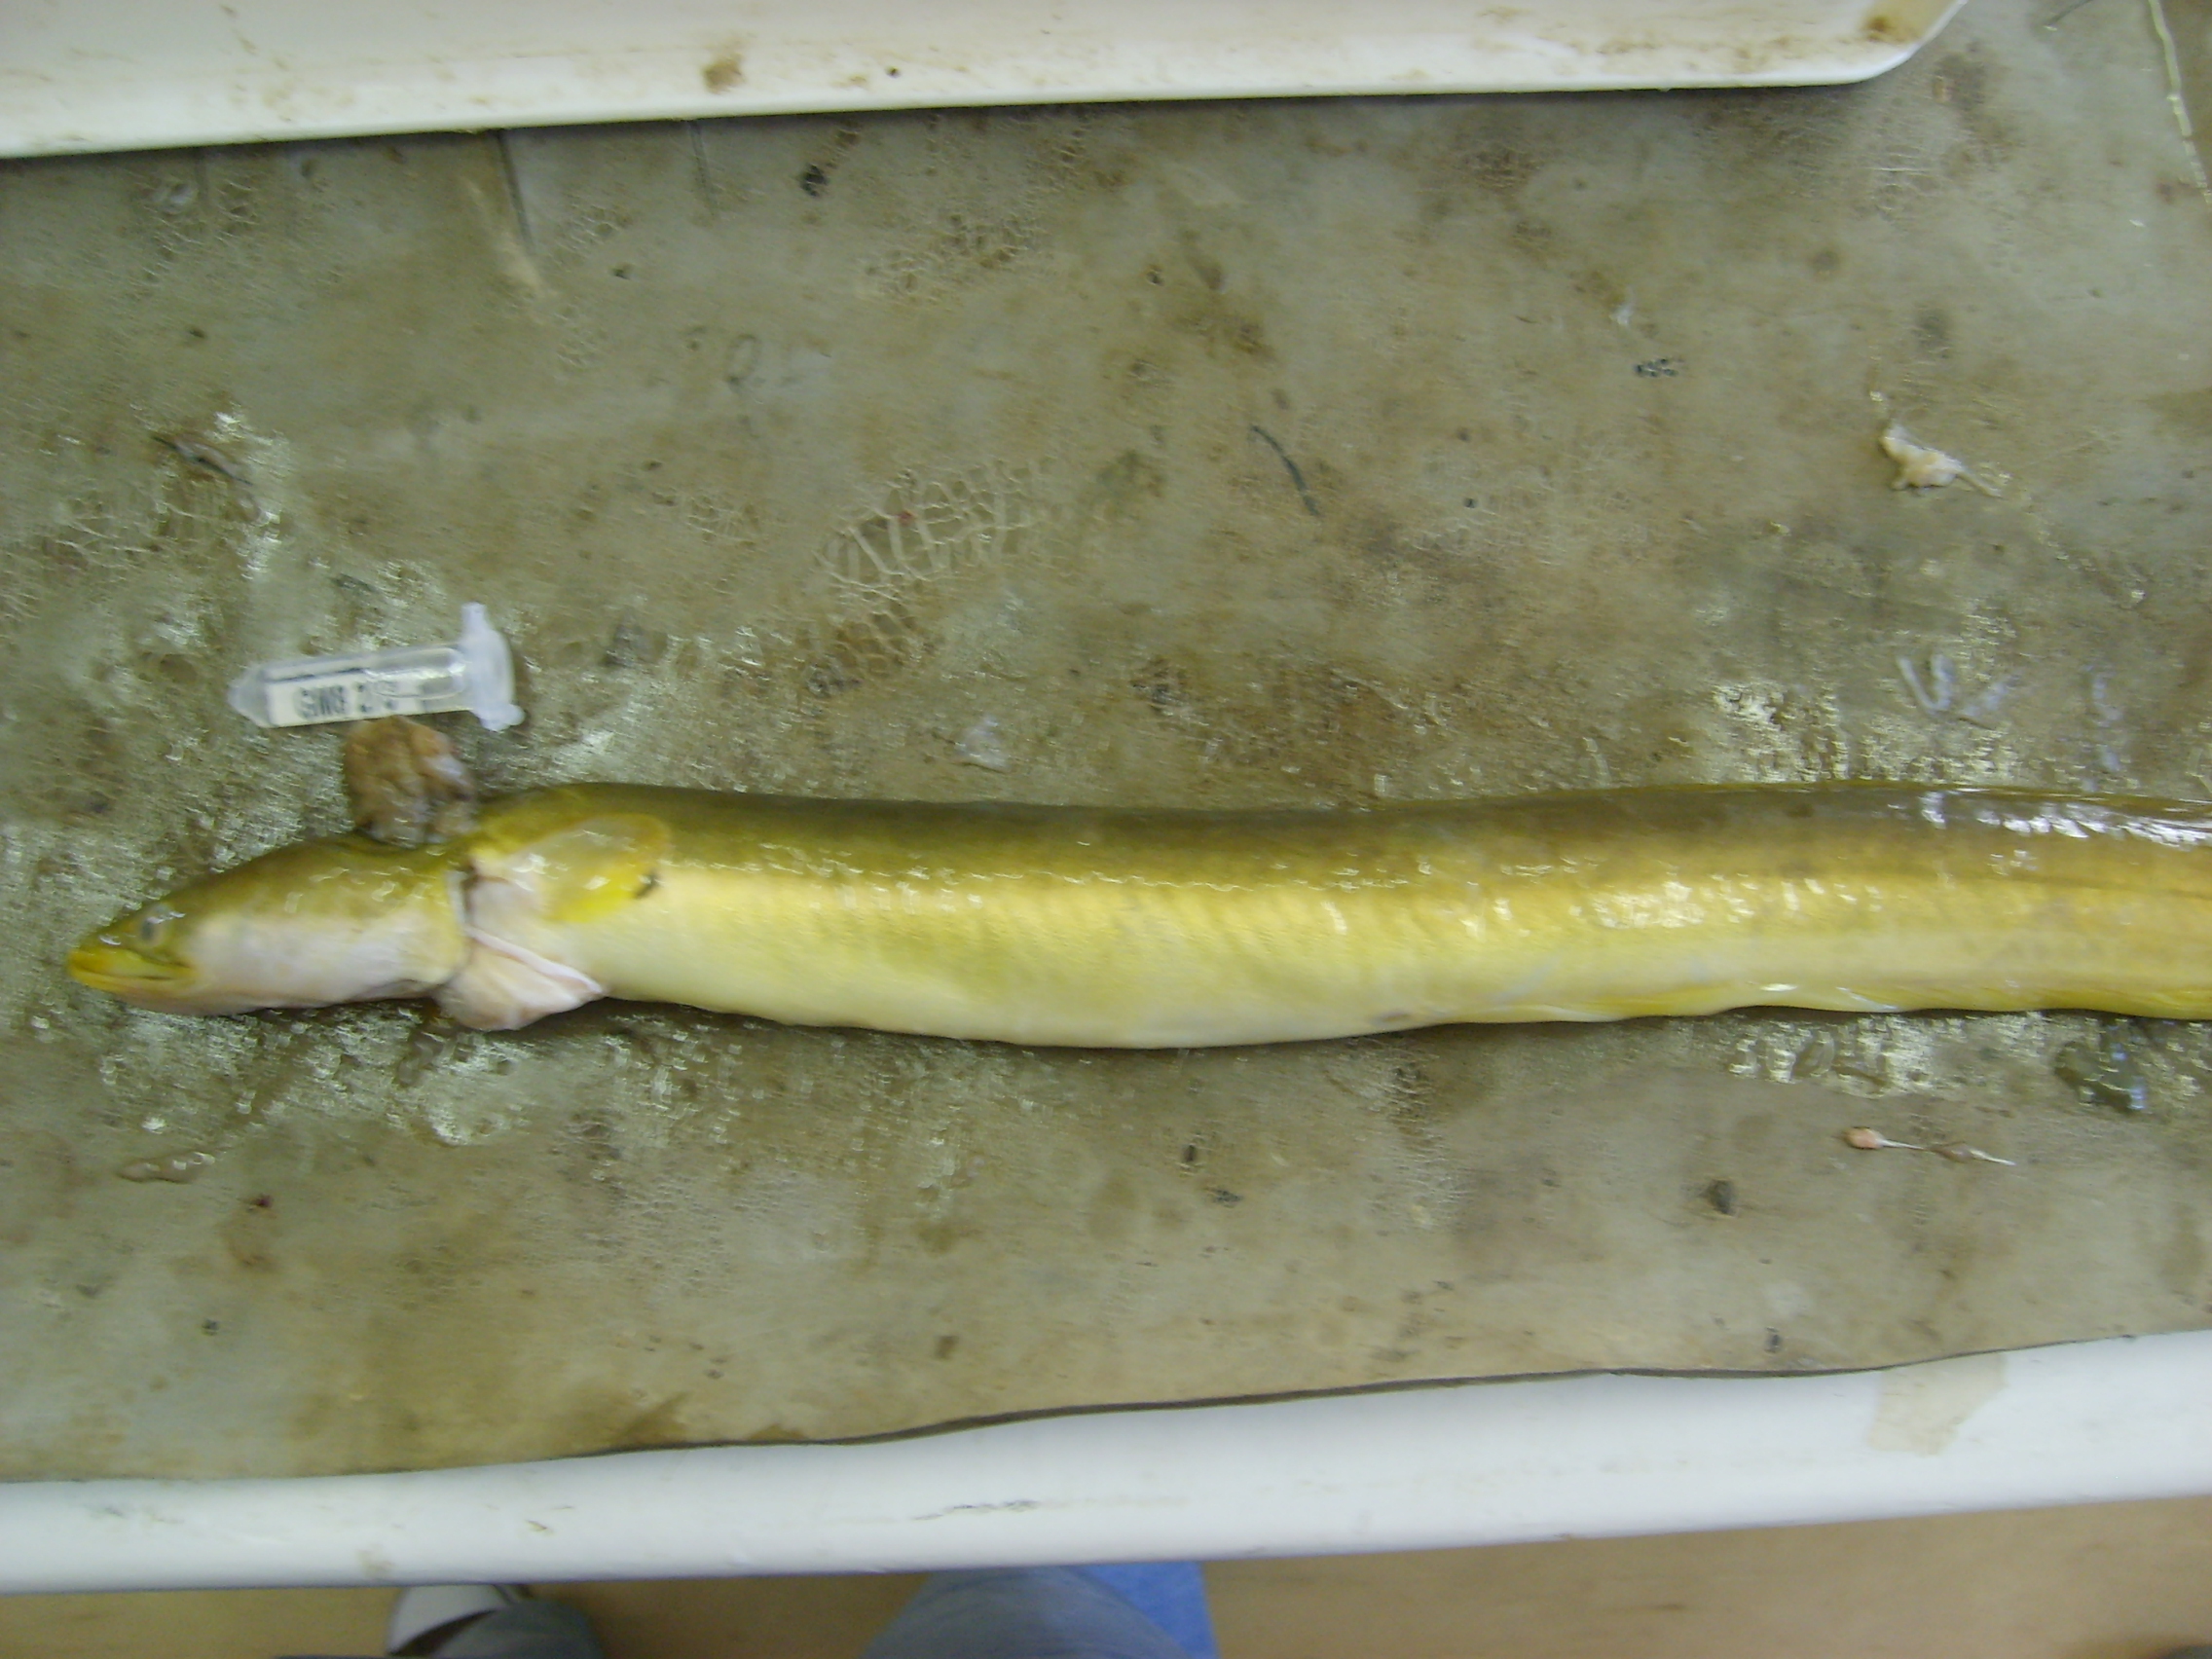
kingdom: Animalia
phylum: Chordata
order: Anguilliformes
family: Anguillidae
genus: Anguilla
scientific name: Anguilla mossambica
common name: African longfin eel
